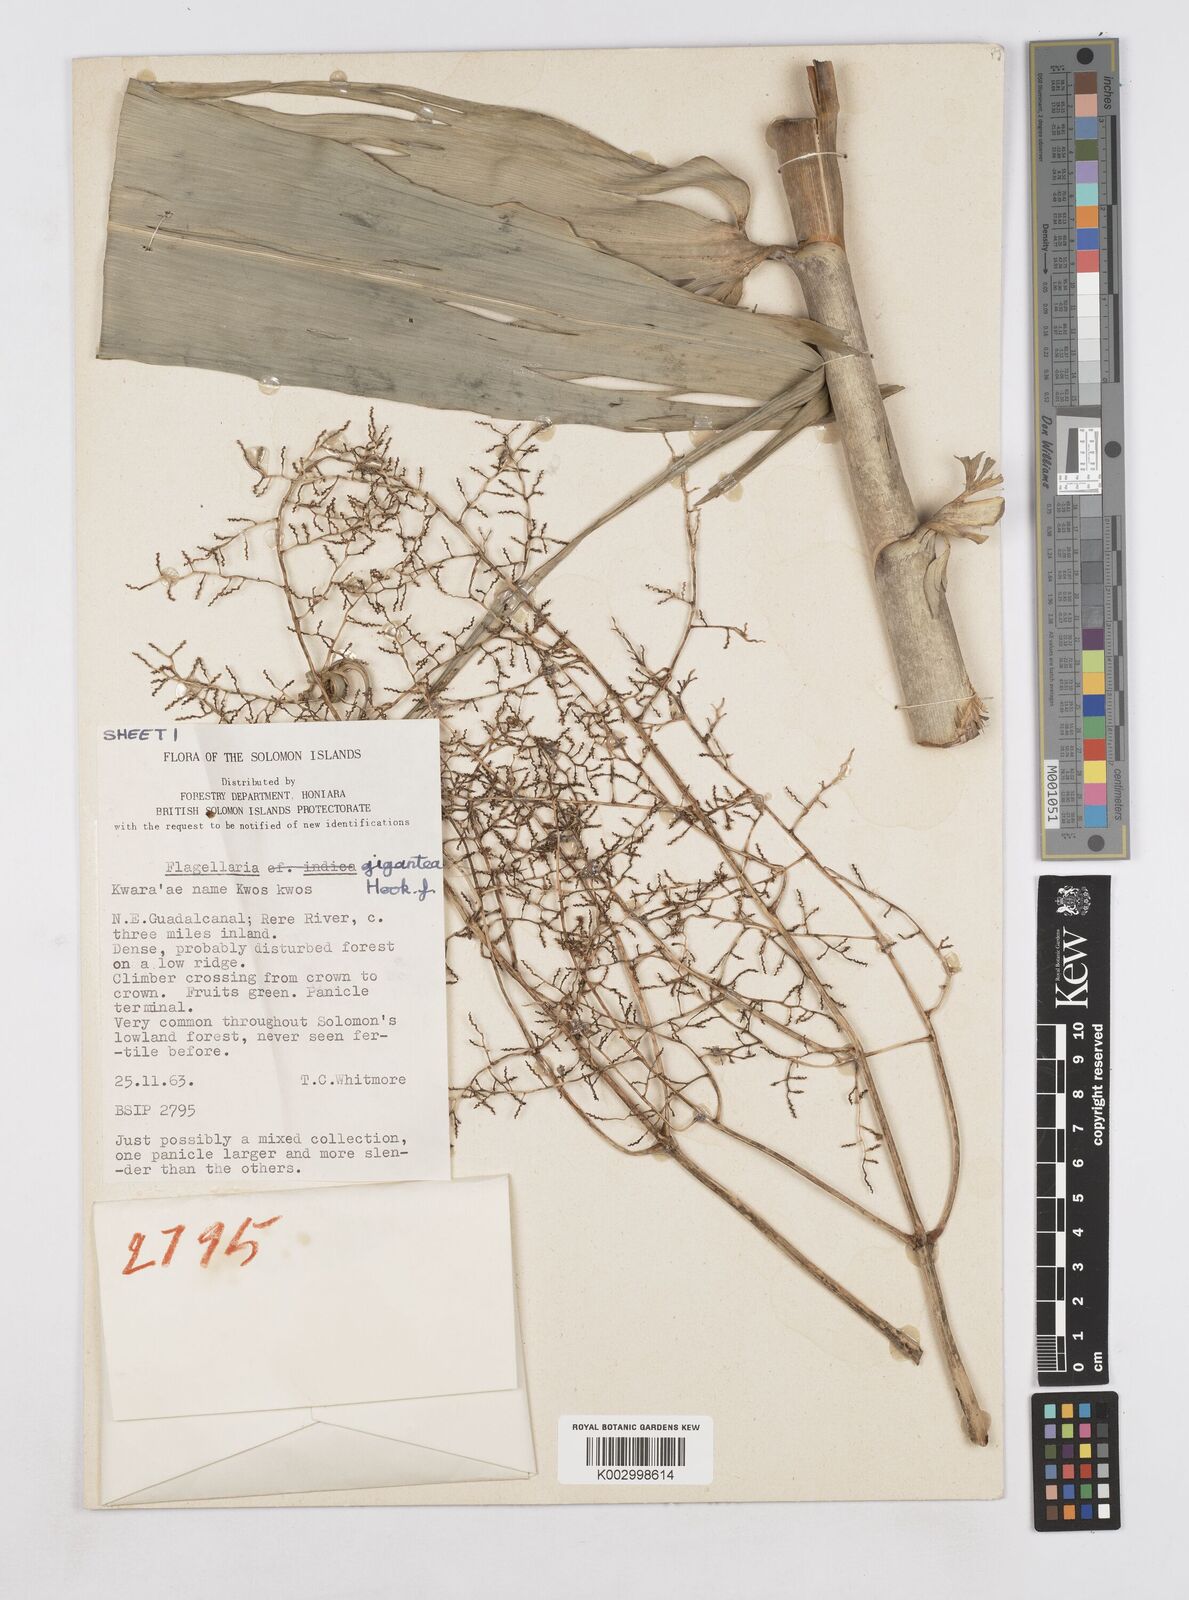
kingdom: Plantae
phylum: Tracheophyta
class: Liliopsida
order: Poales
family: Flagellariaceae
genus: Flagellaria
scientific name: Flagellaria gigantea
